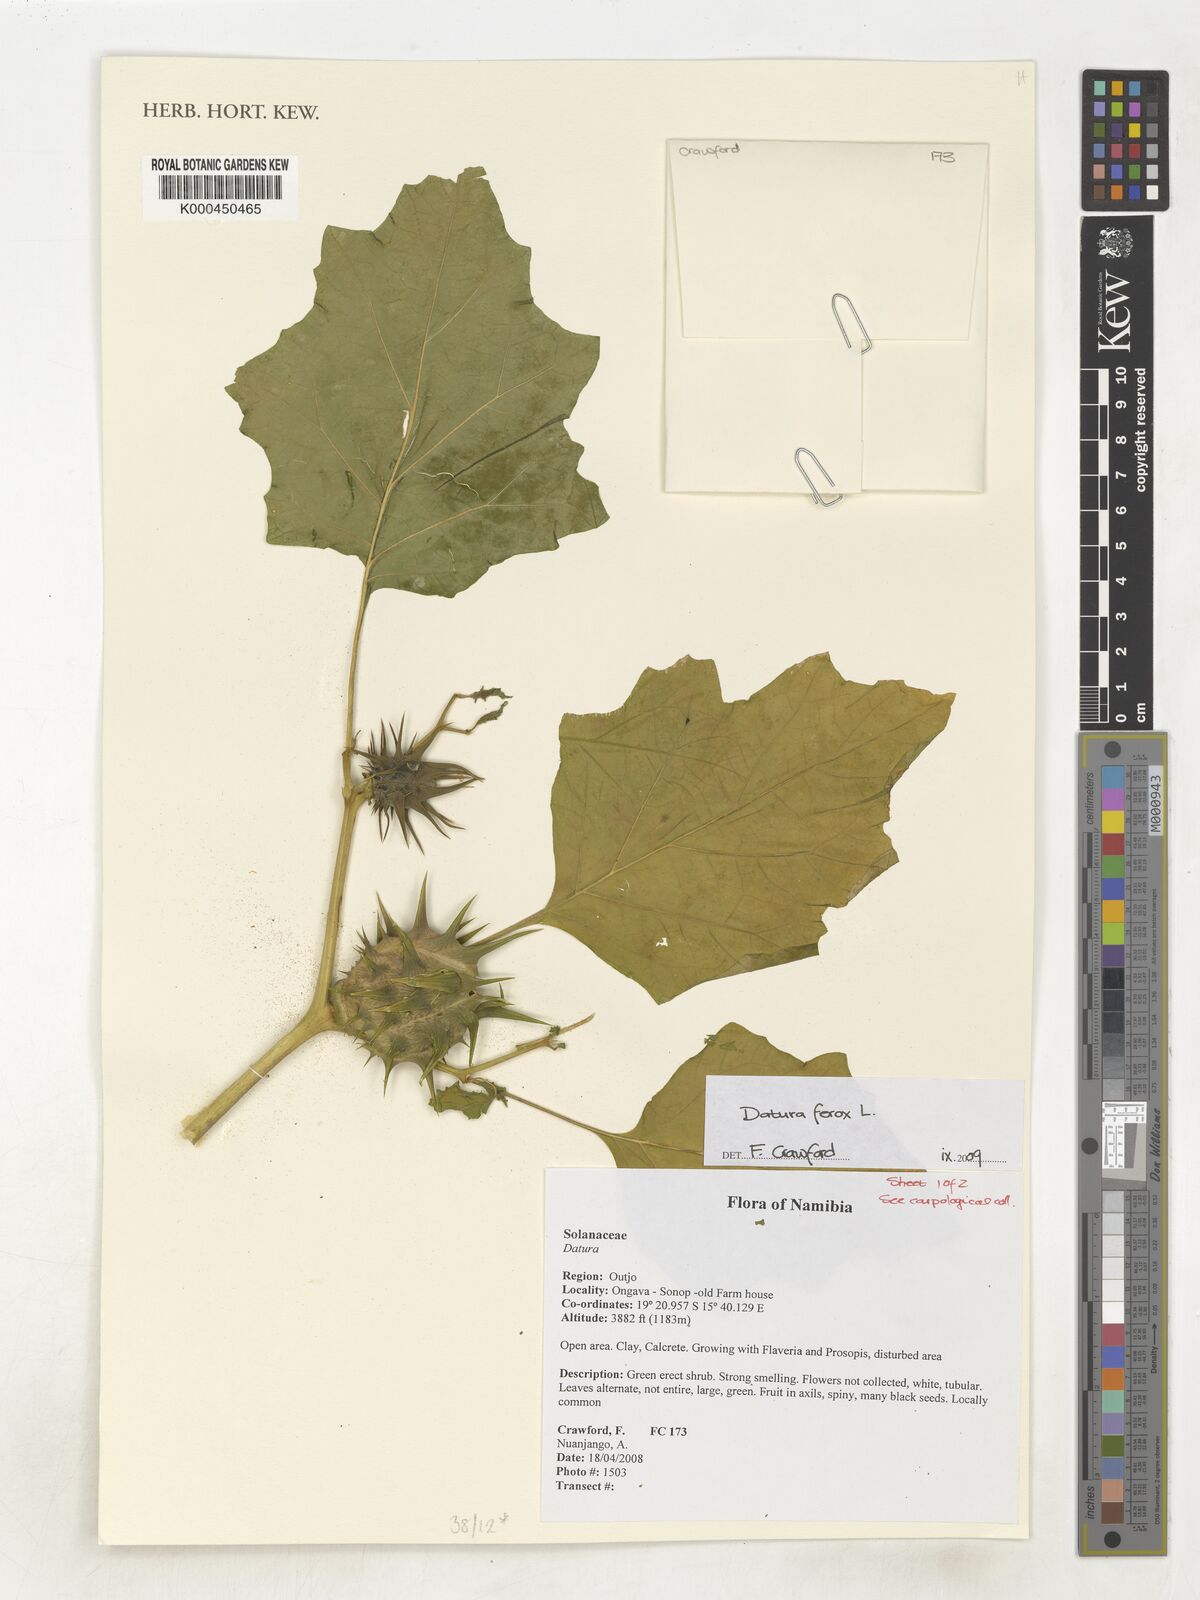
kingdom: Plantae
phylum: Tracheophyta
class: Magnoliopsida
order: Solanales
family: Solanaceae
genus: Datura
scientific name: Datura ferox
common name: Angel's-trumpets
